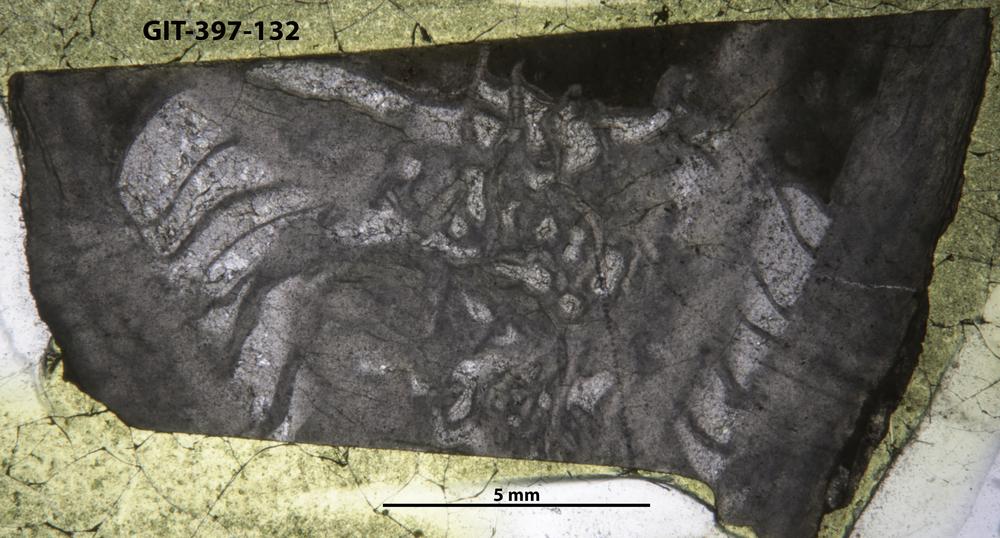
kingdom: Animalia
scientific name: Animalia
